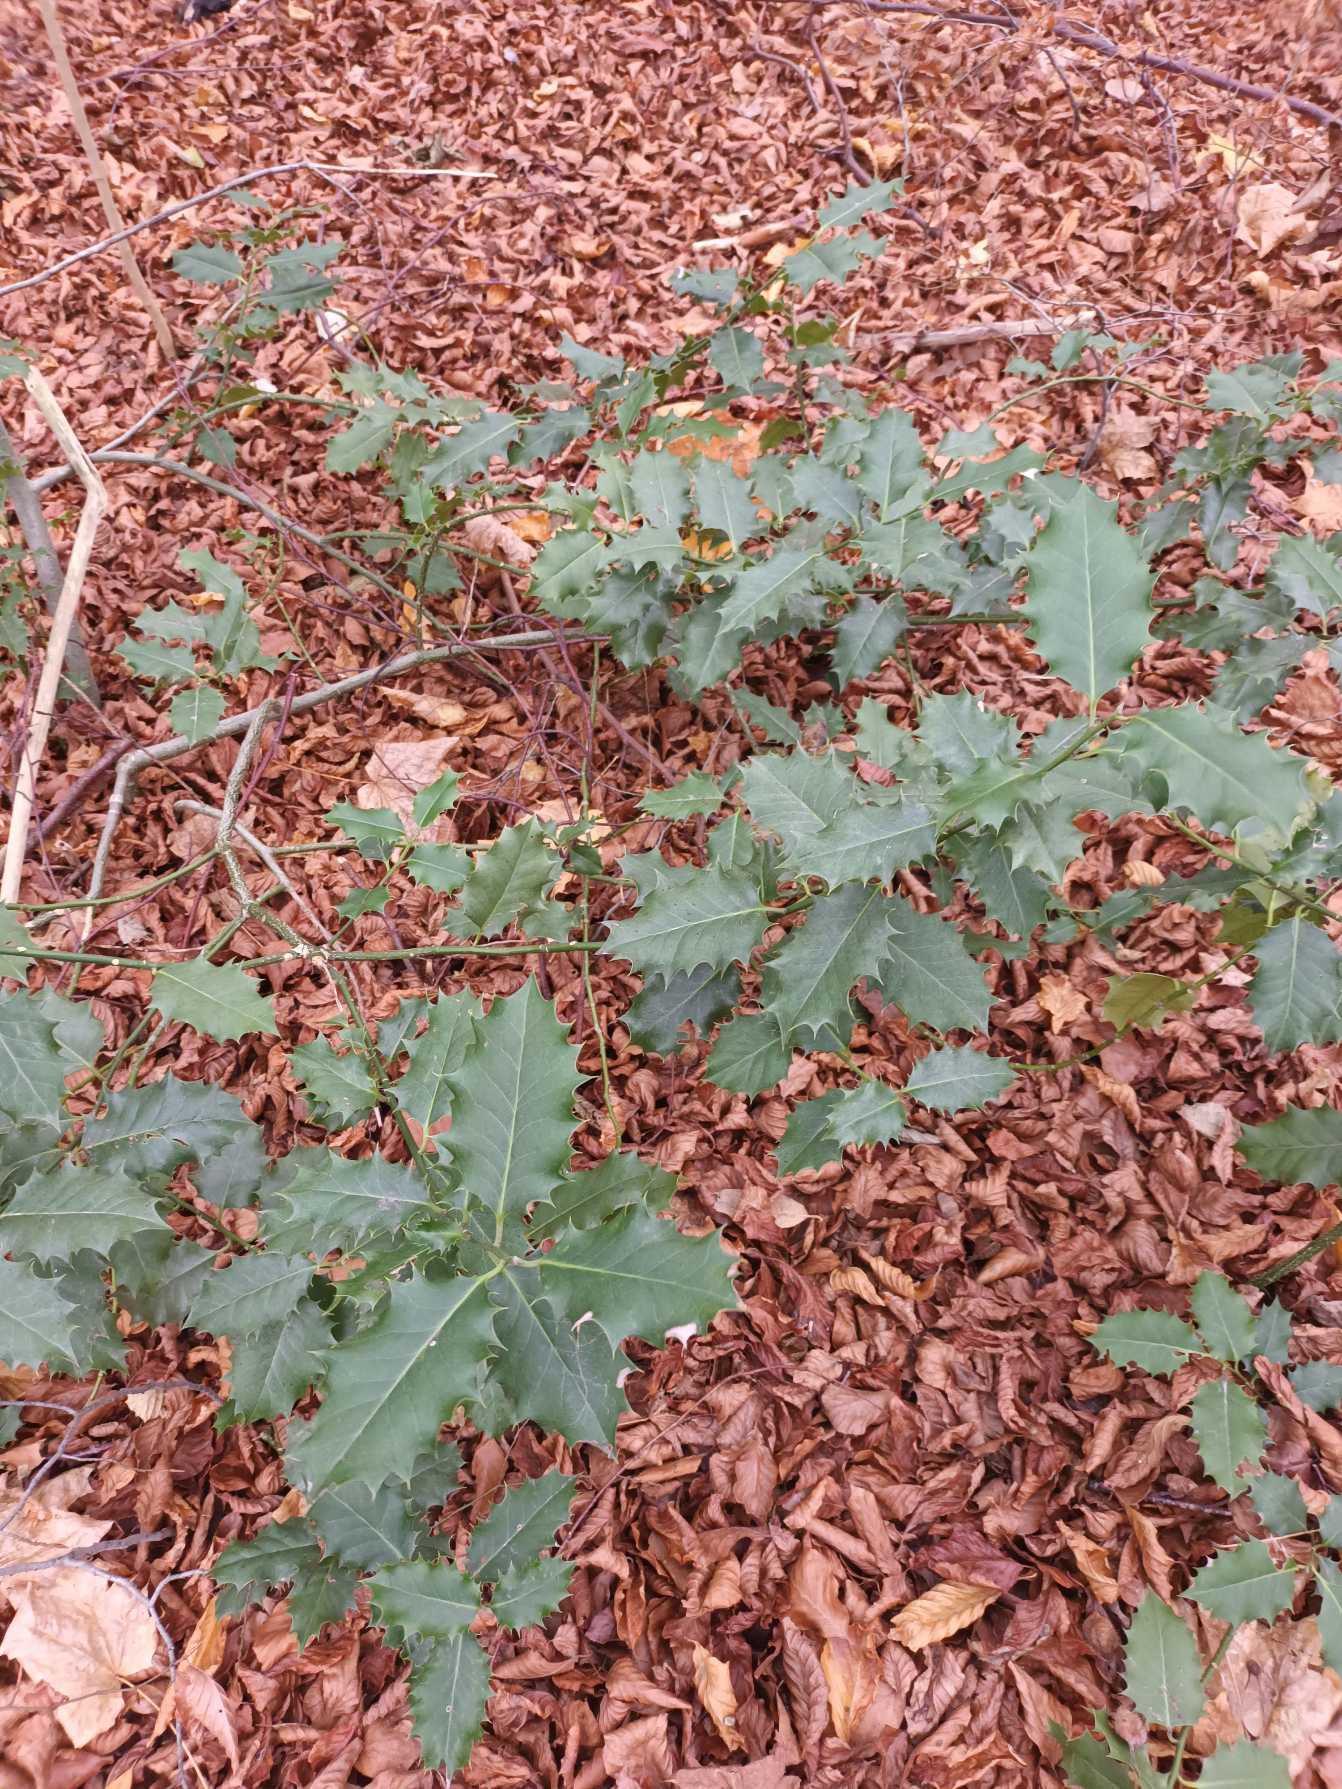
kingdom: Plantae
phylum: Tracheophyta
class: Magnoliopsida
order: Aquifoliales
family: Aquifoliaceae
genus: Ilex
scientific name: Ilex aquifolium
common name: Kristtorn
